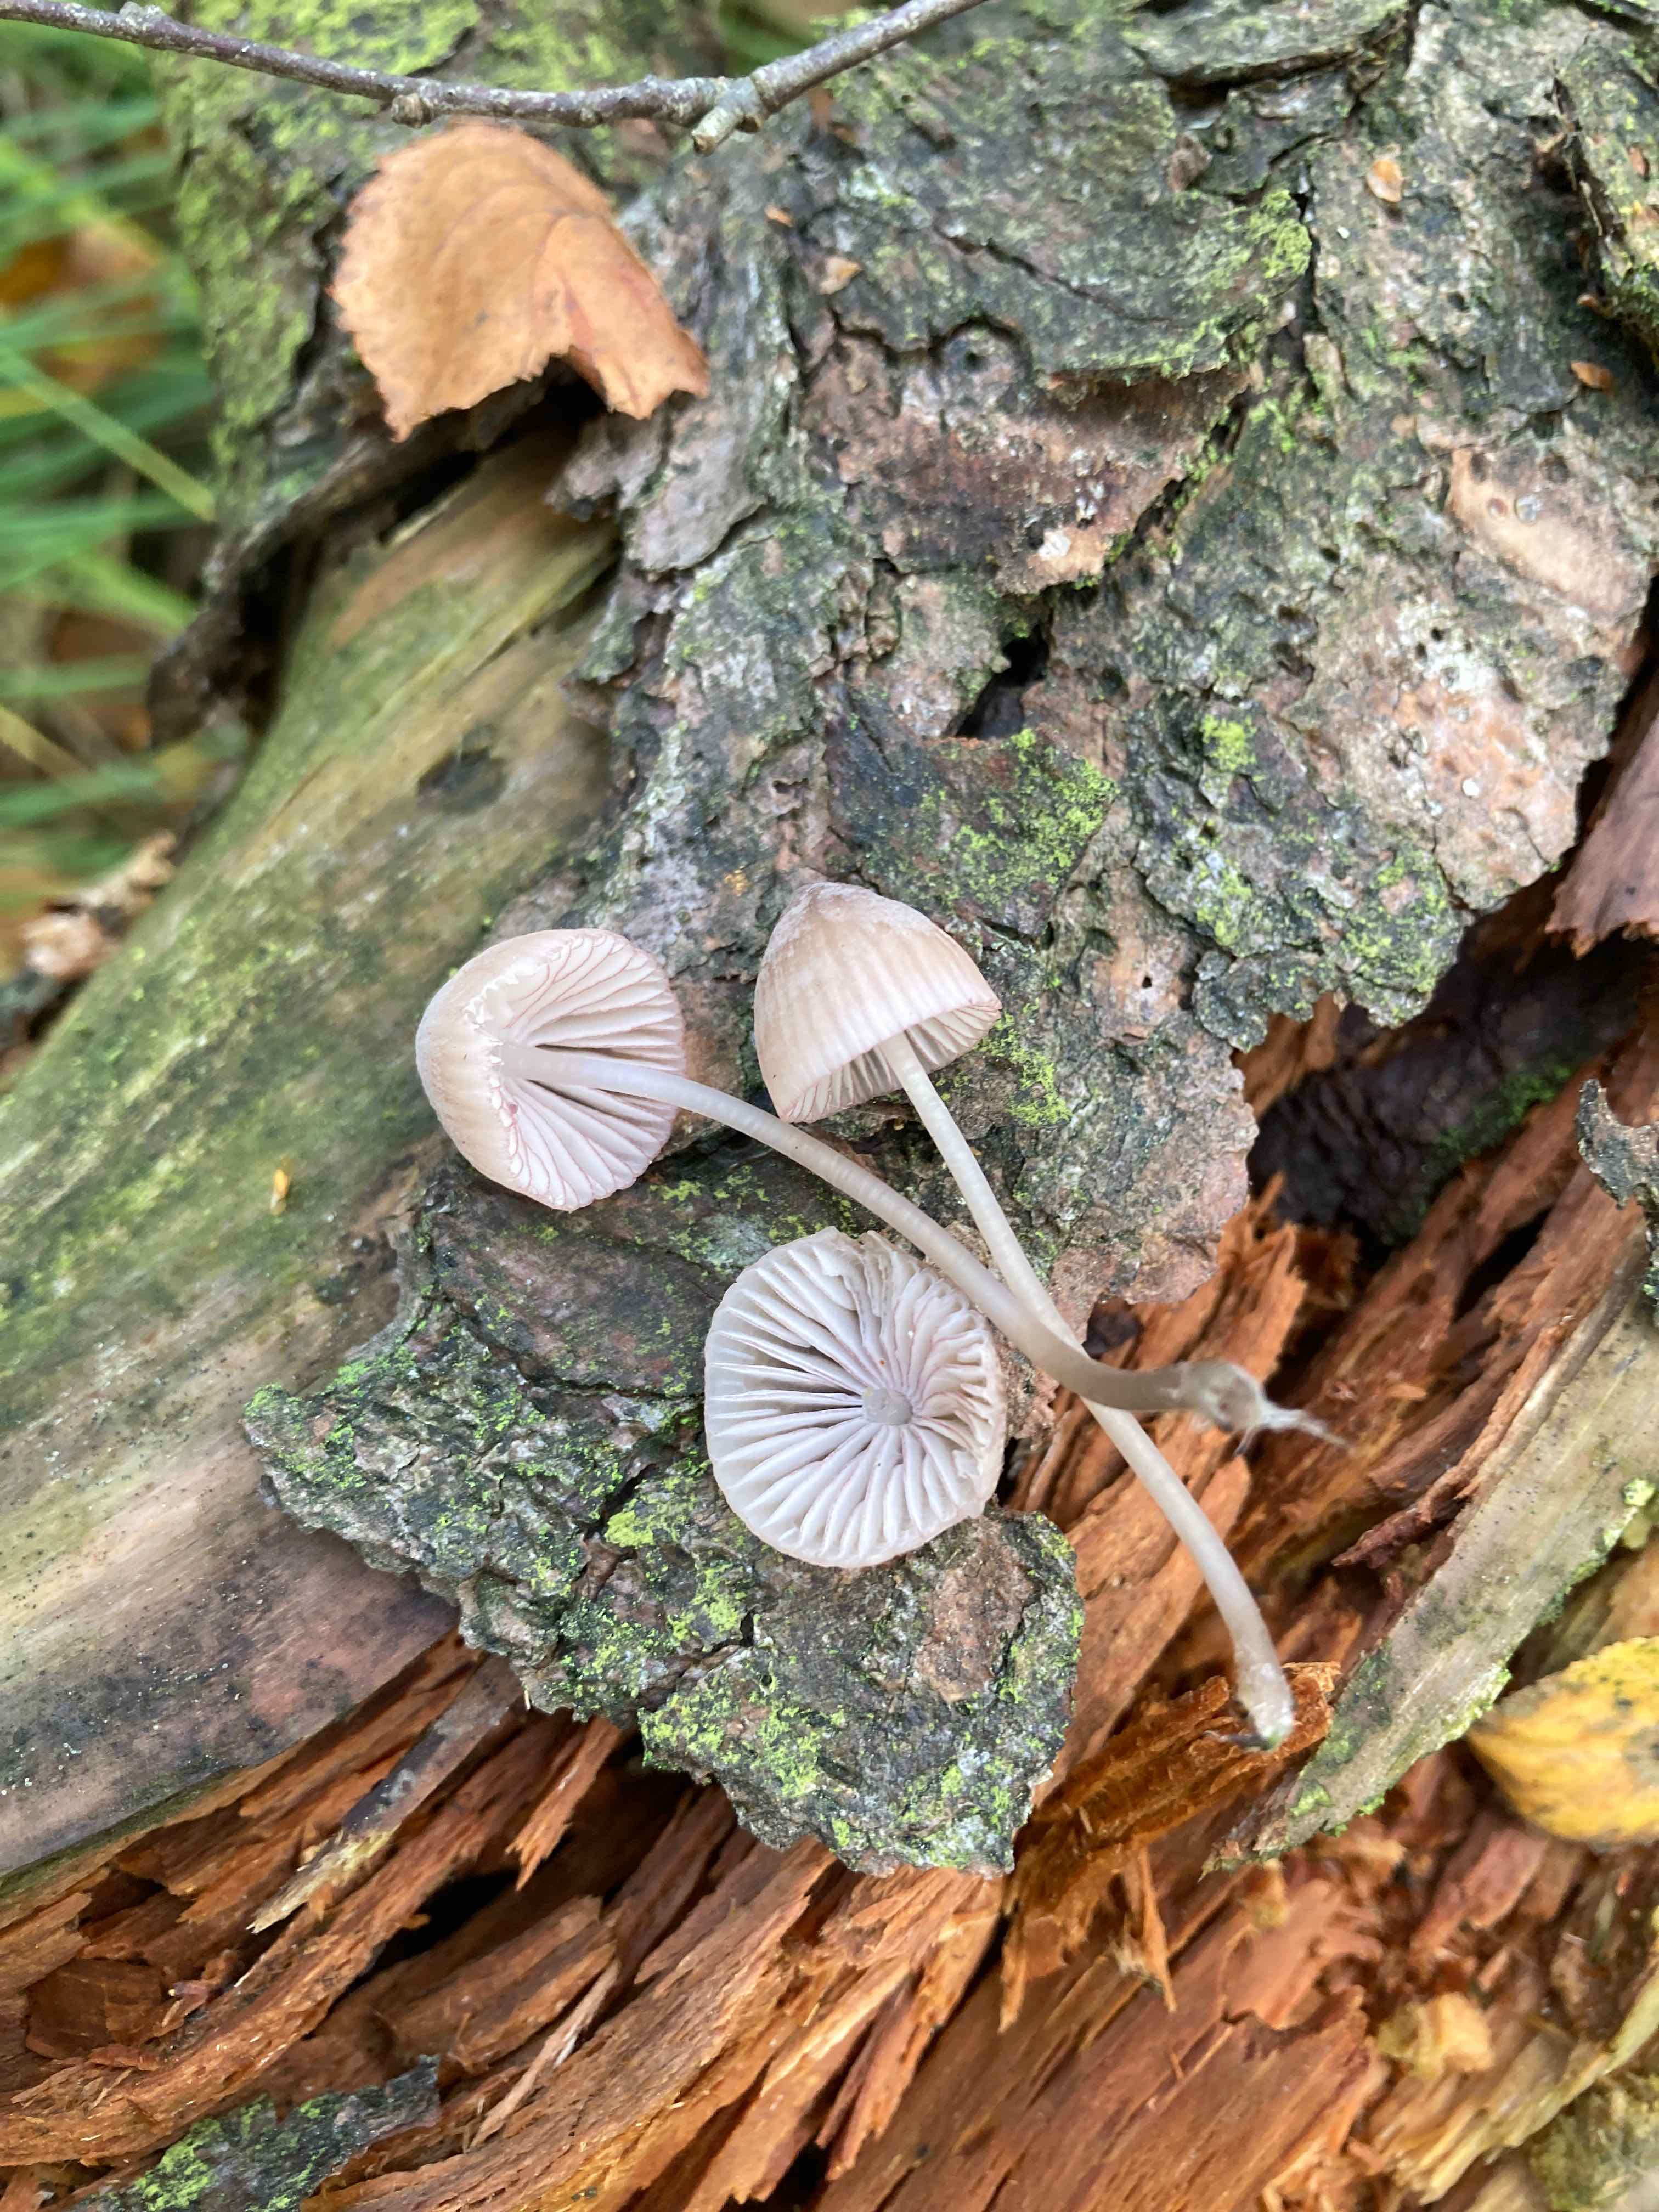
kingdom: Fungi
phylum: Basidiomycota
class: Agaricomycetes
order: Agaricales
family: Mycenaceae
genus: Mycena
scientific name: Mycena rubromarginata
